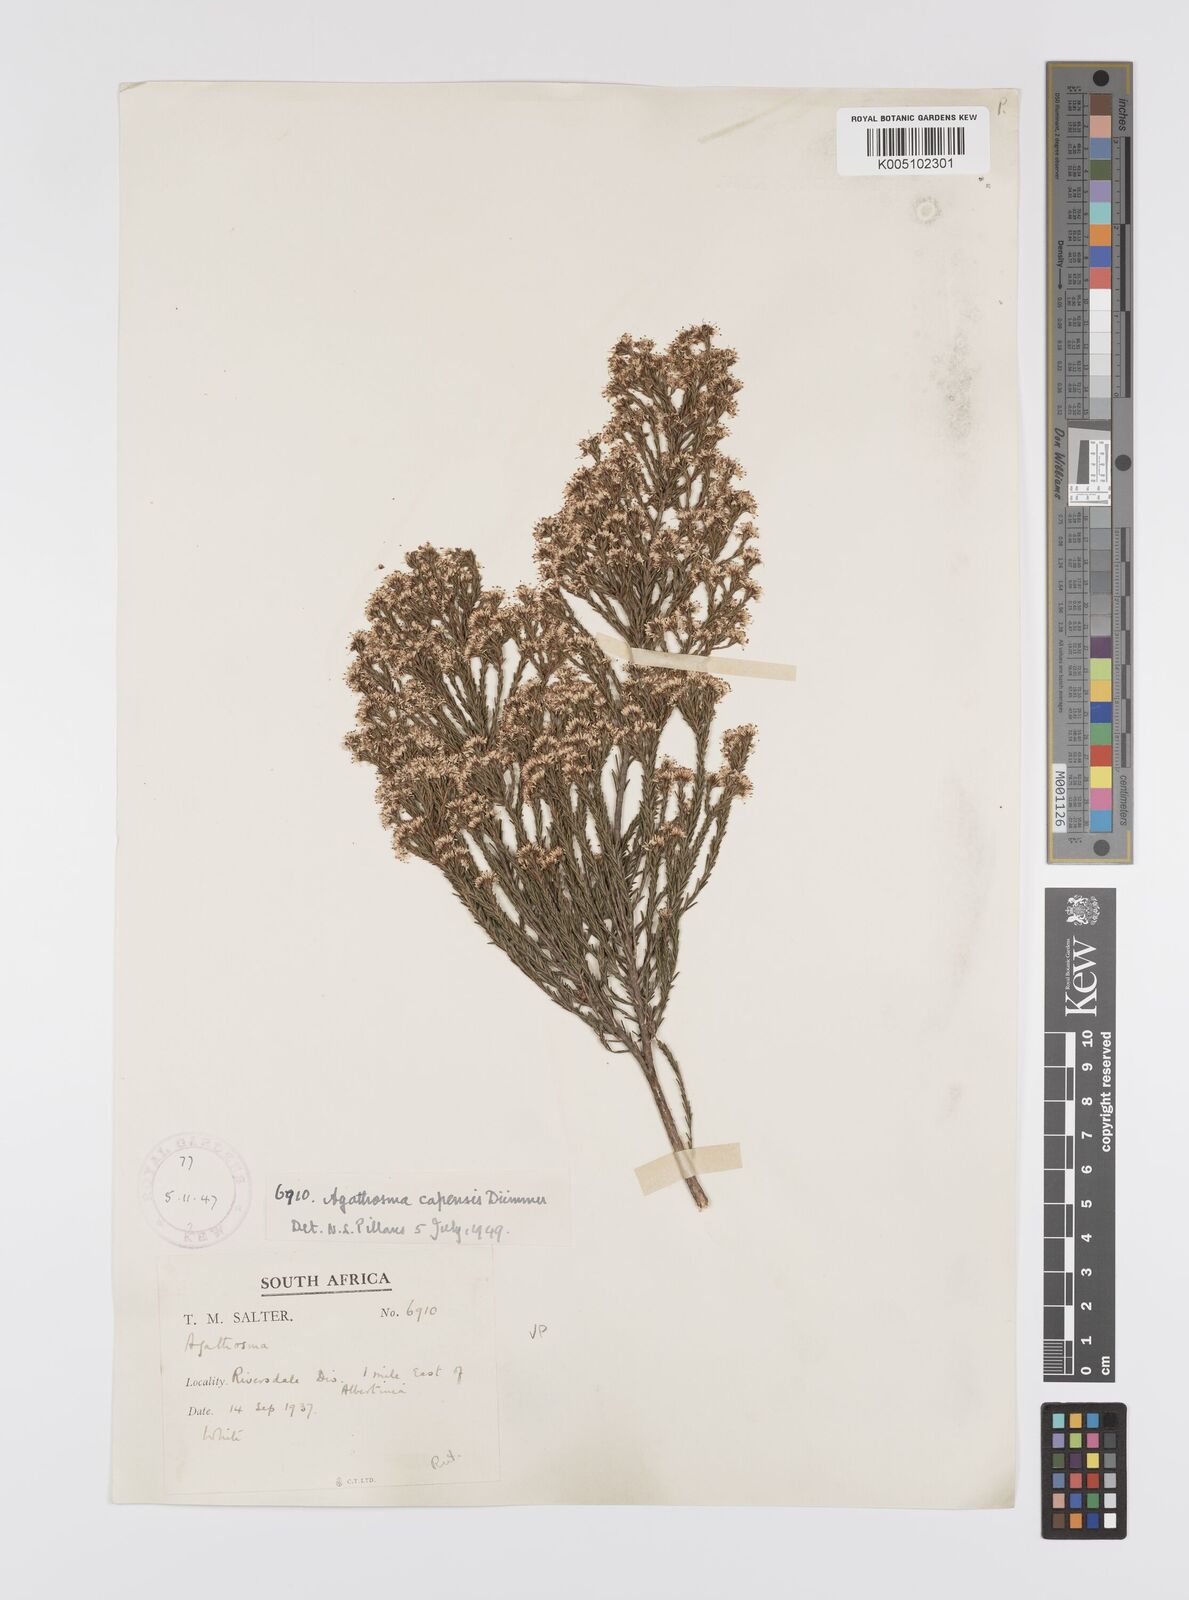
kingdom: Plantae
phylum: Tracheophyta
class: Magnoliopsida
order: Sapindales
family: Rutaceae
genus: Agathosma
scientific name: Agathosma capensis
